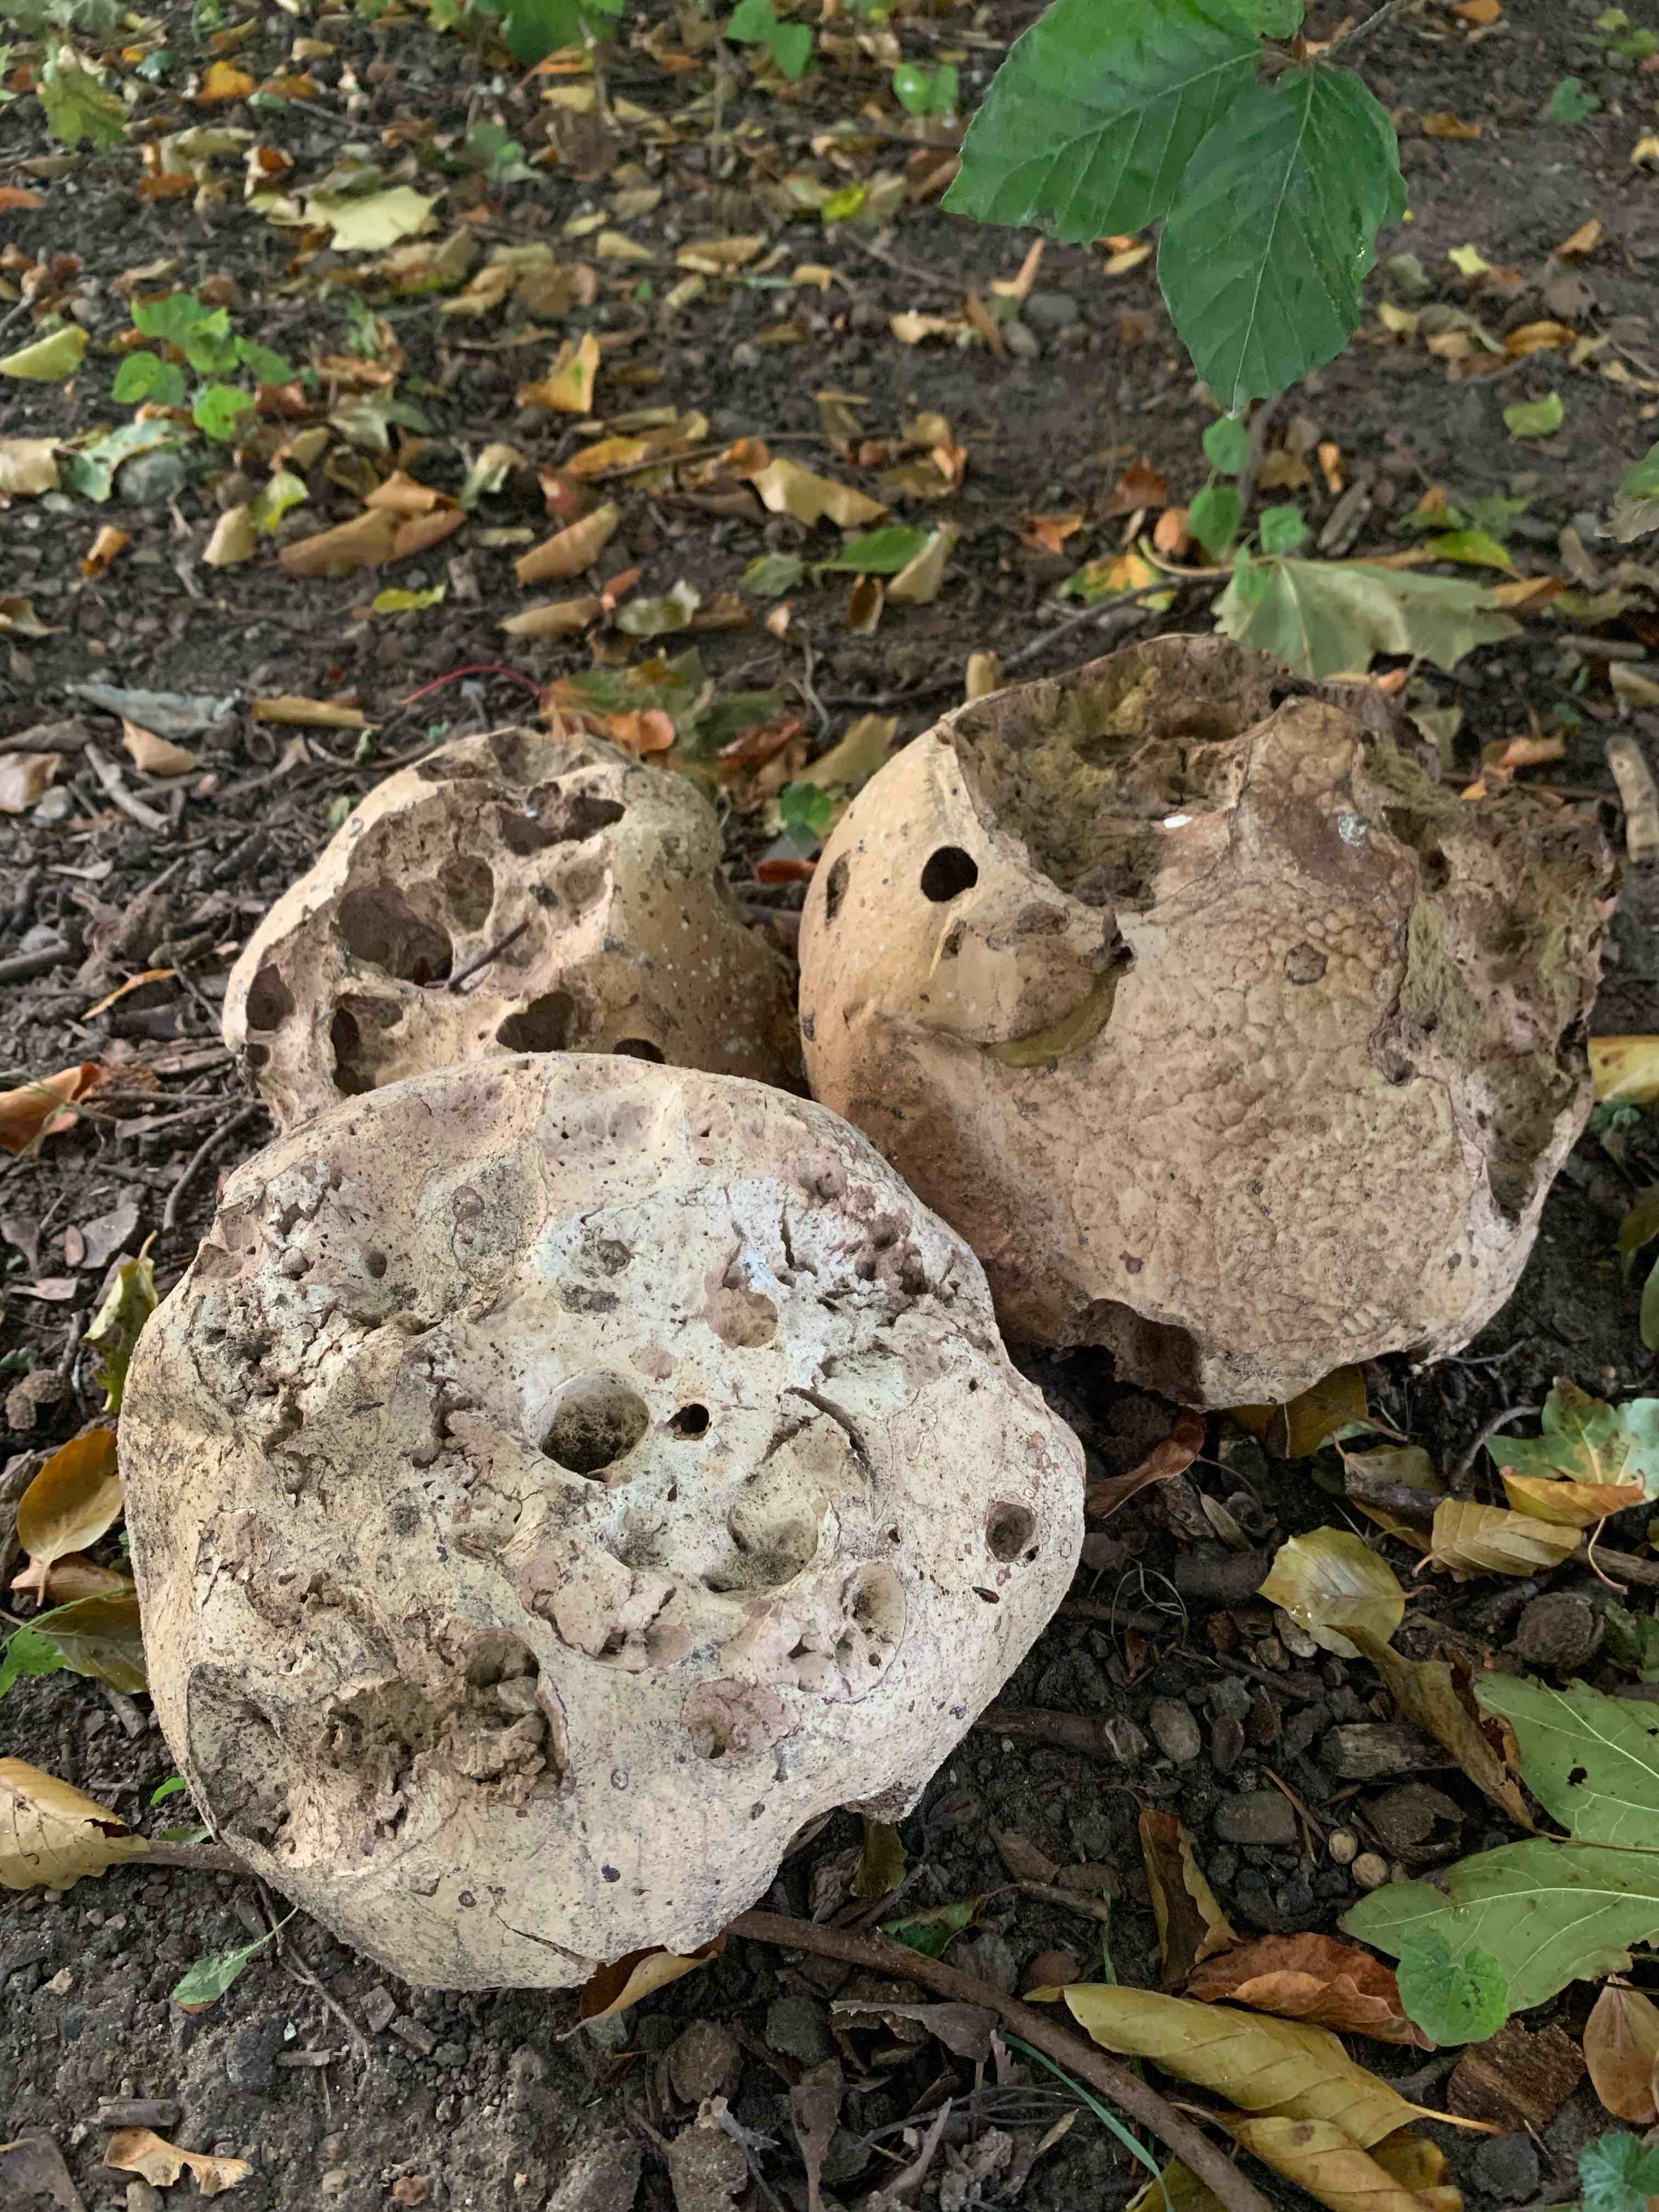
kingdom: Fungi
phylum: Basidiomycota
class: Agaricomycetes
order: Agaricales
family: Lycoperdaceae
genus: Calvatia
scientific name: Calvatia gigantea
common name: kæmpestøvbold
